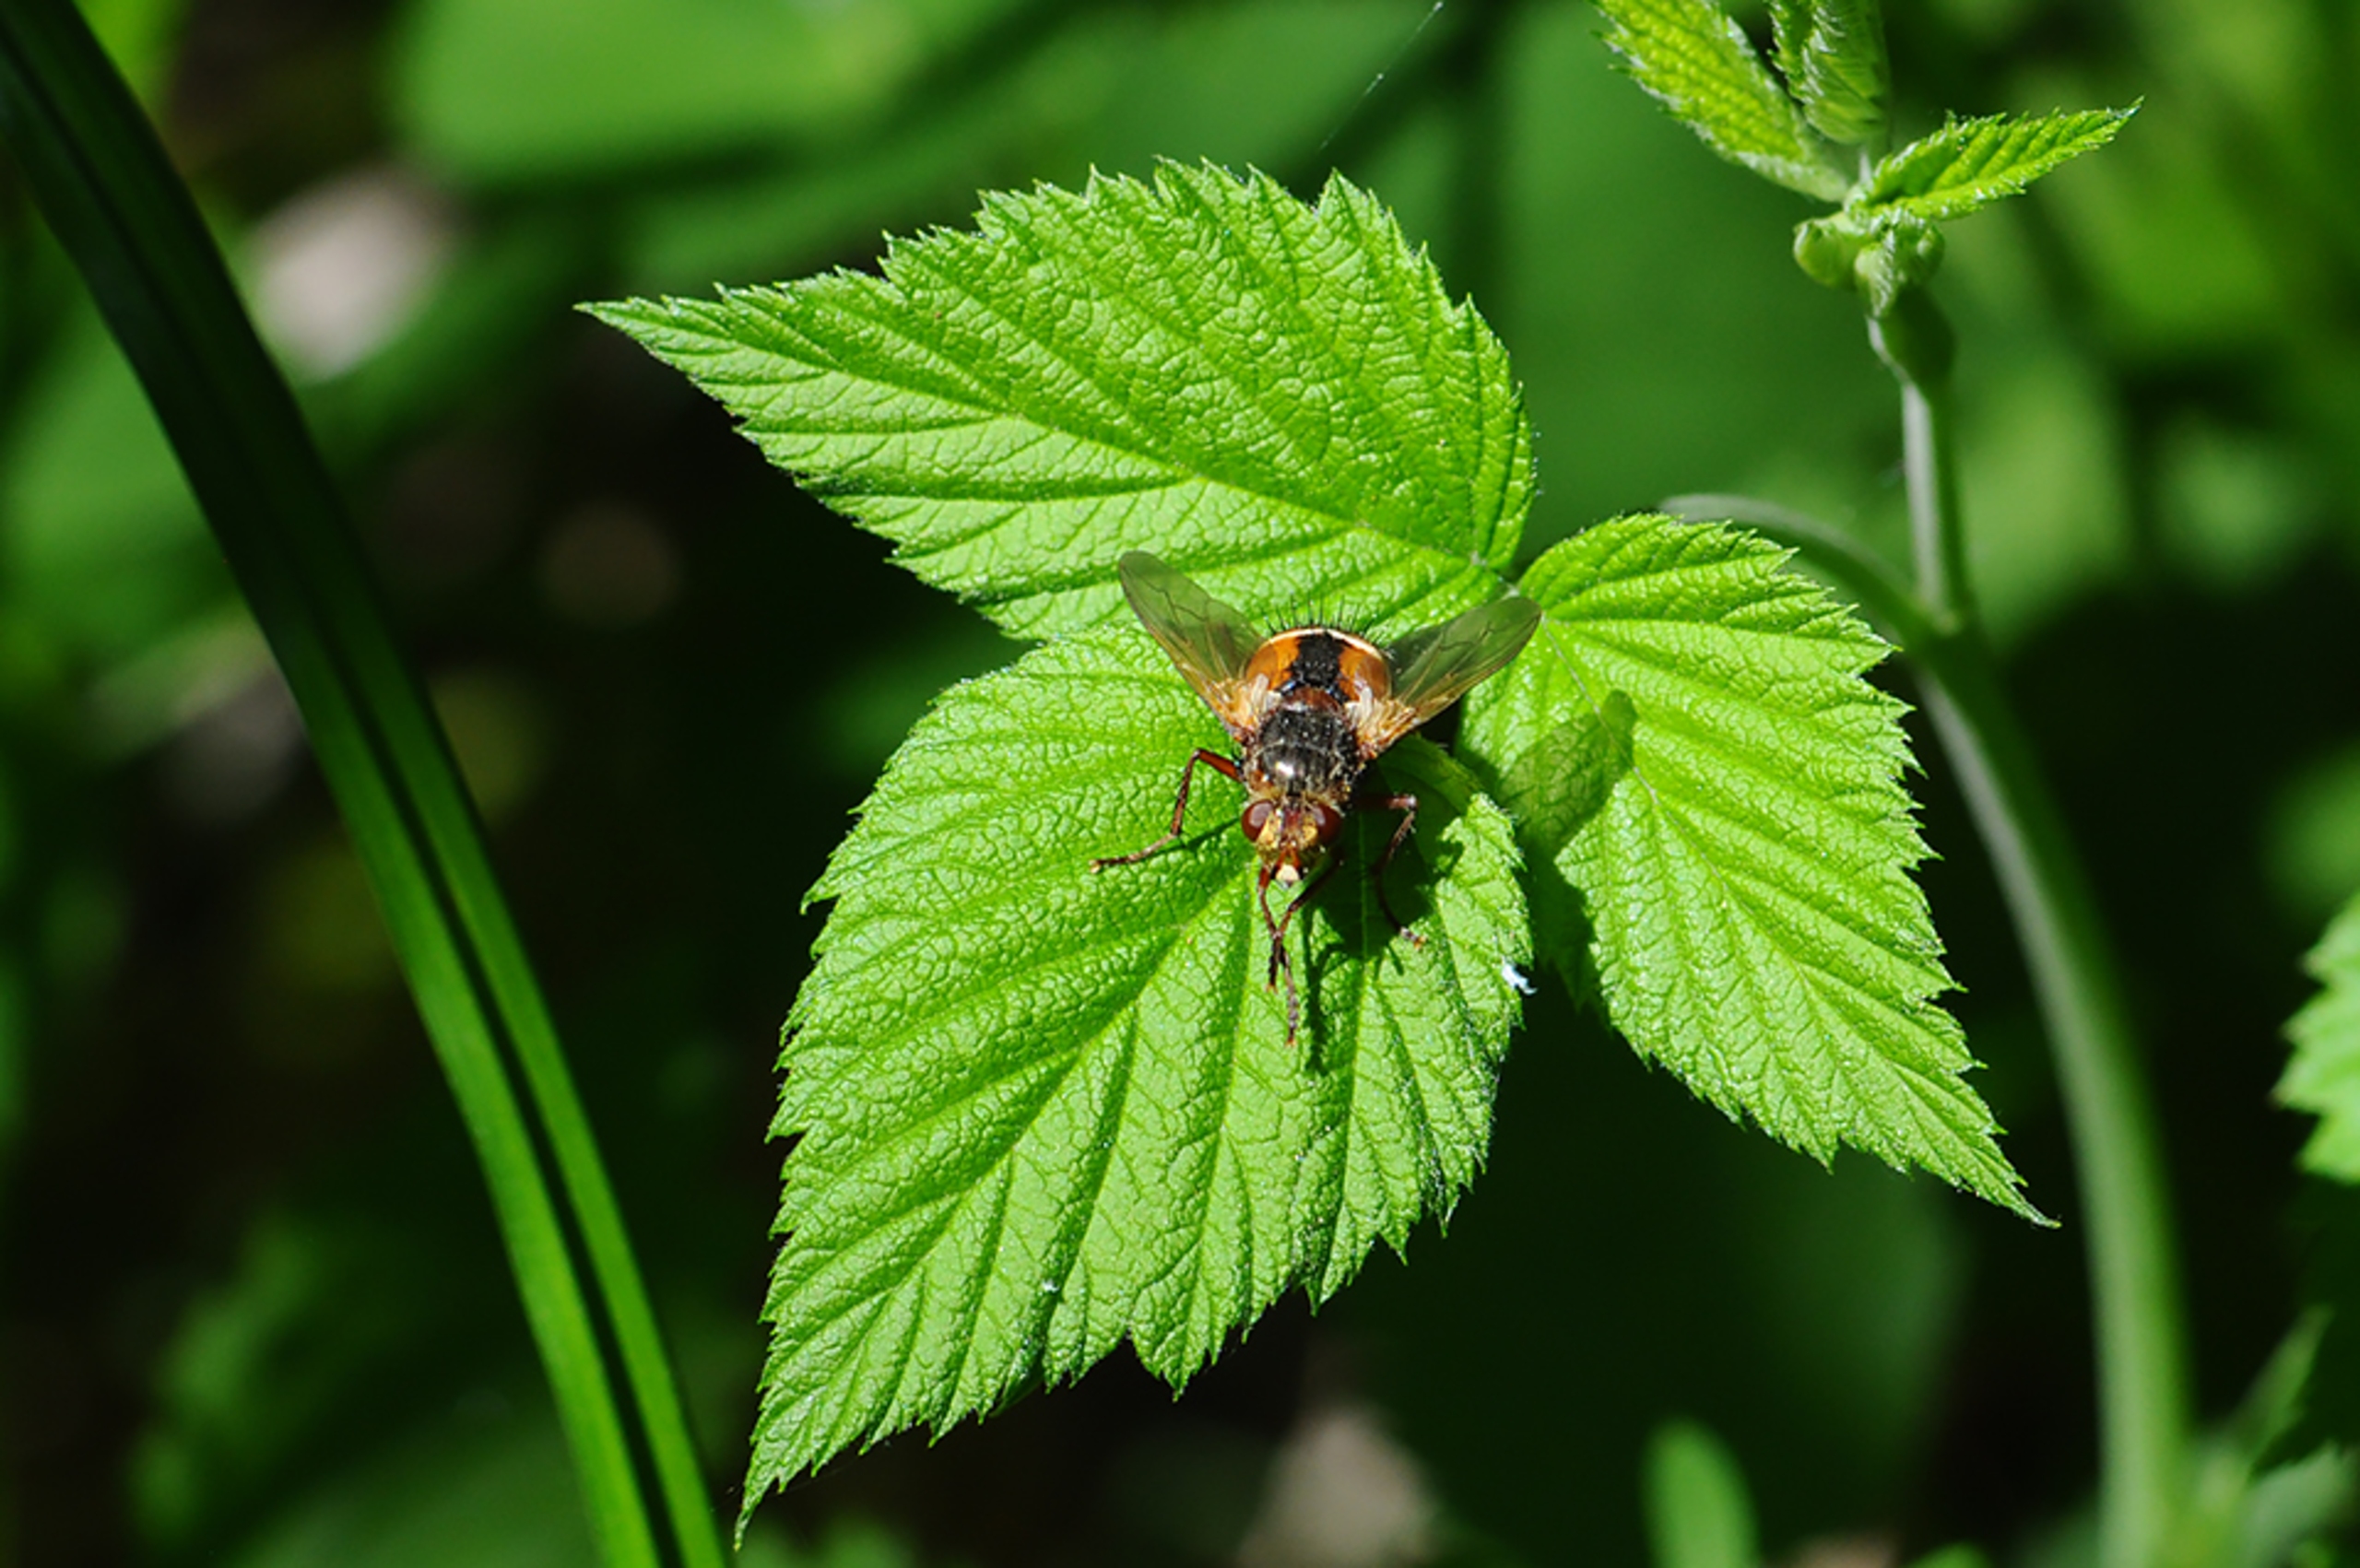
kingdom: Animalia
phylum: Arthropoda
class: Insecta
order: Diptera
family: Tachinidae
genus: Tachina
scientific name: Tachina fera
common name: Mellemfluen oskar
